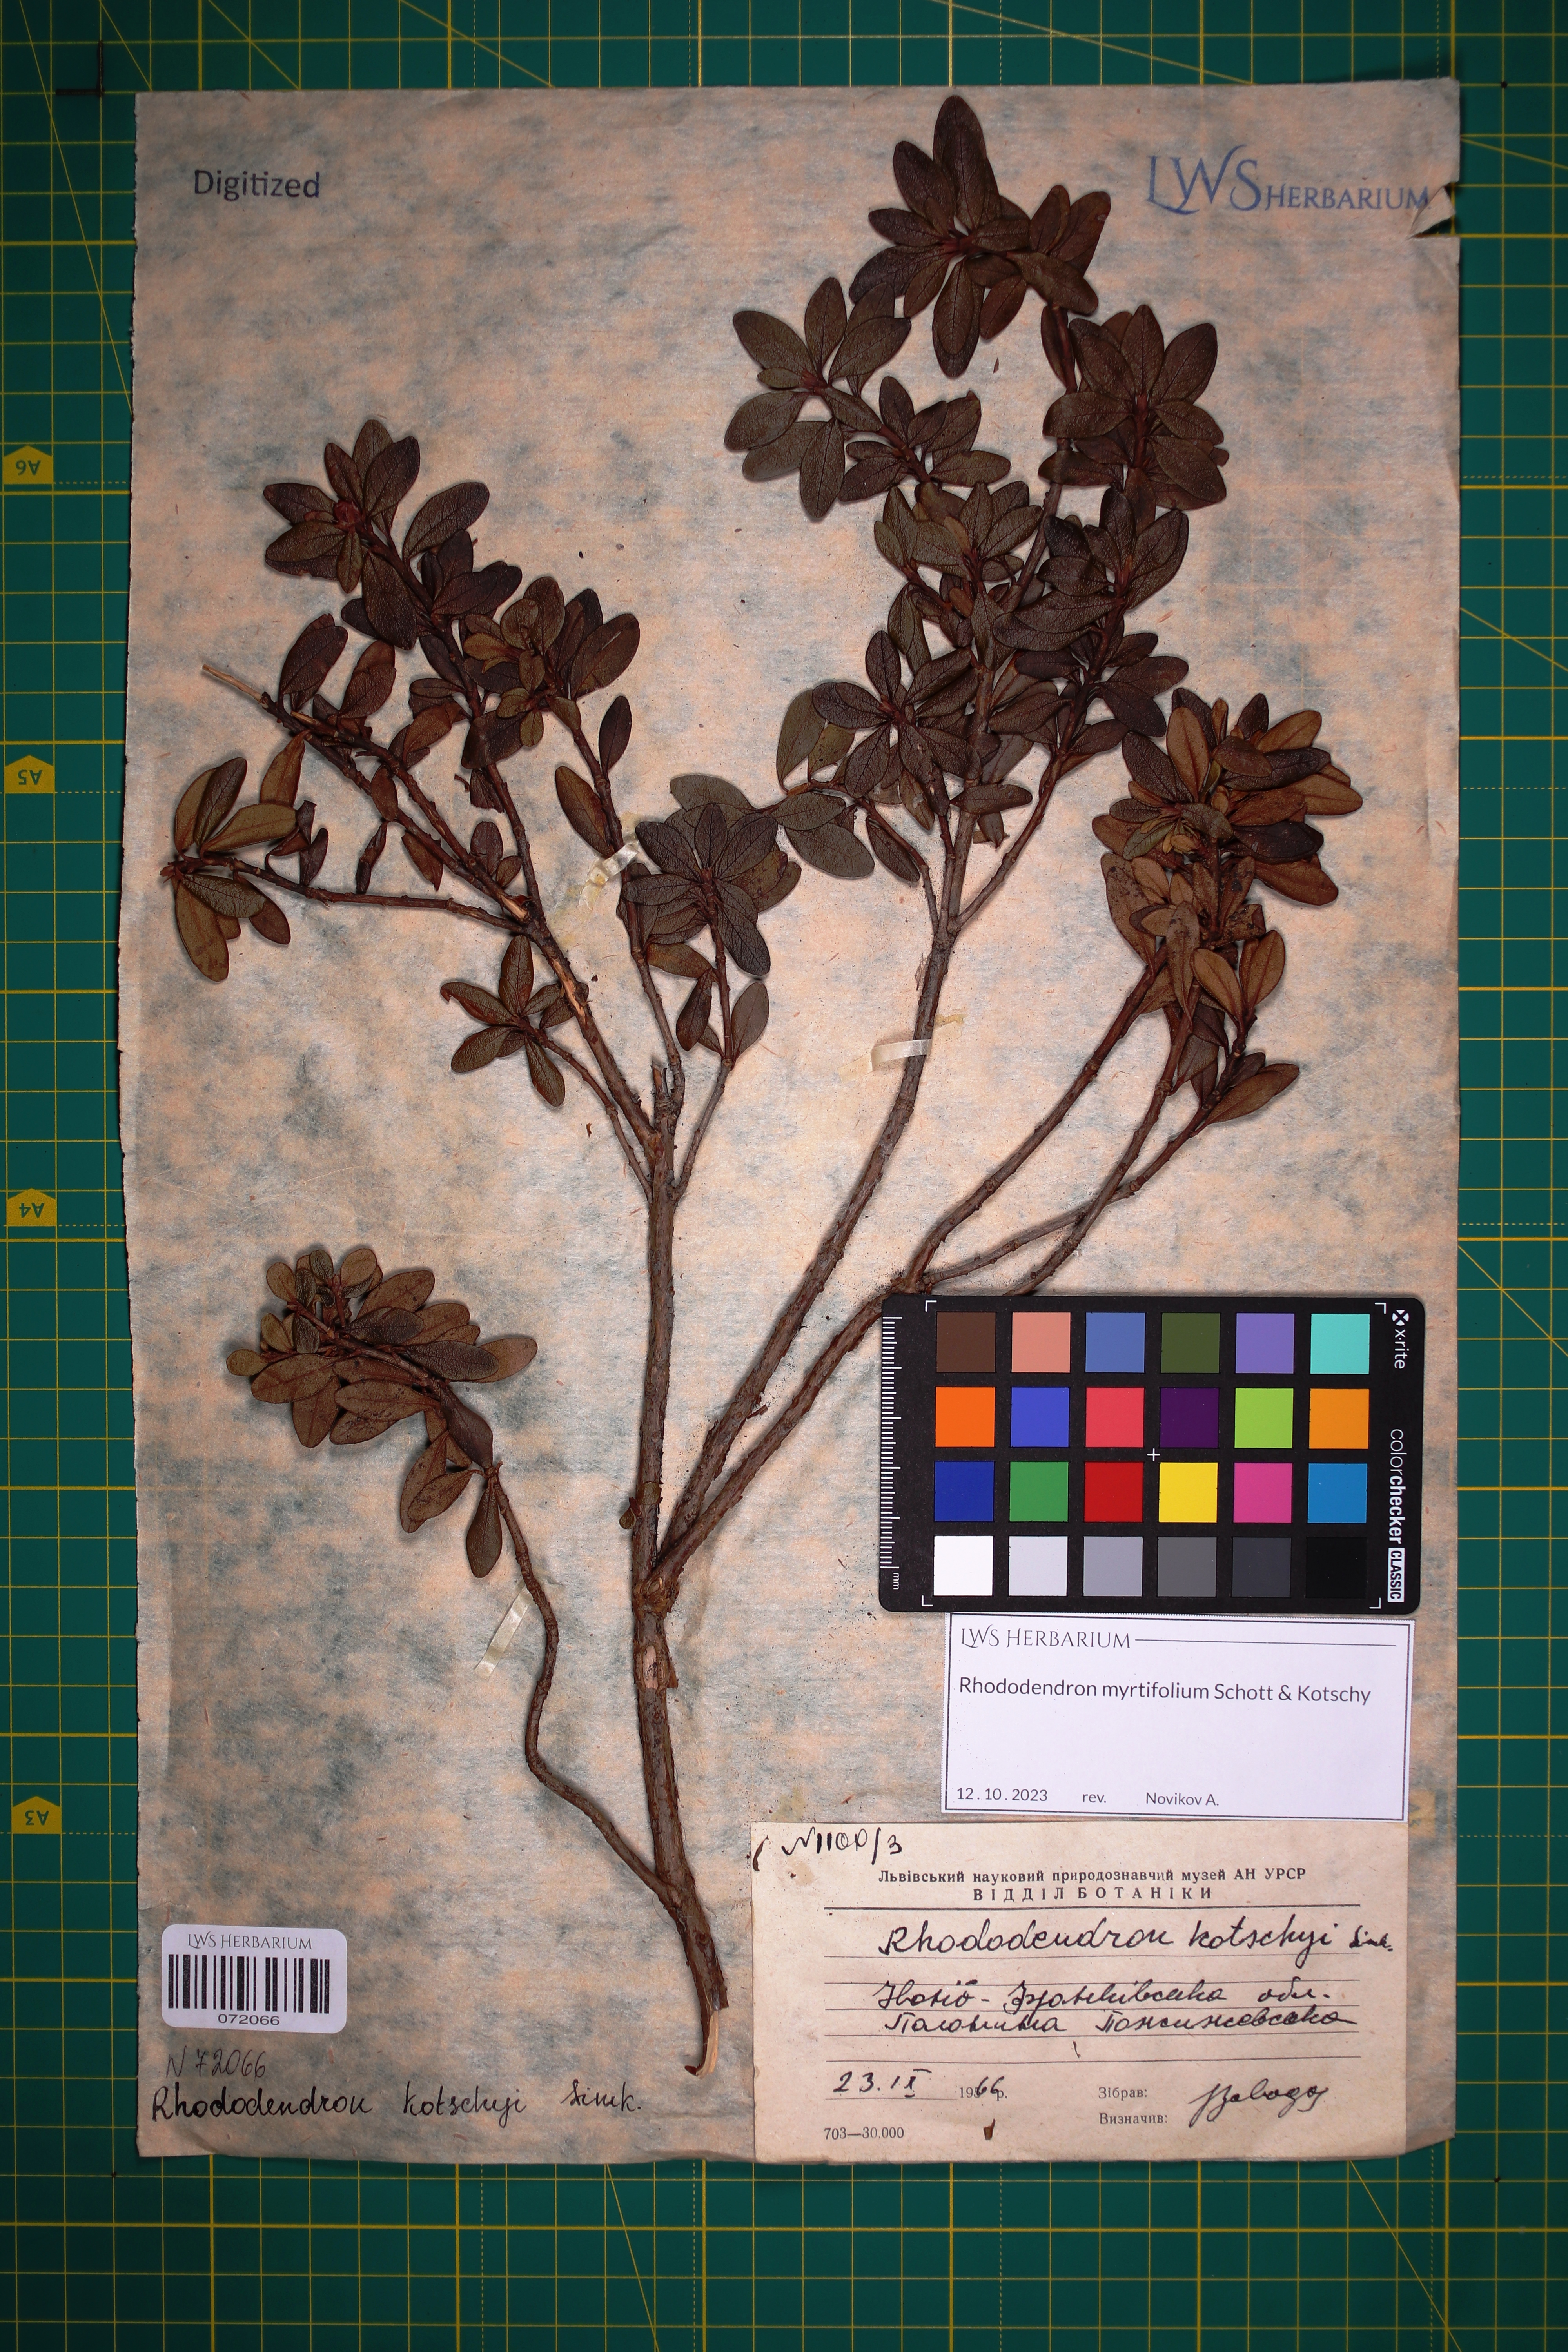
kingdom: Plantae
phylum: Tracheophyta
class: Magnoliopsida
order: Ericales
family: Ericaceae
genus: Rhododendron
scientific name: Rhododendron kotschyi
